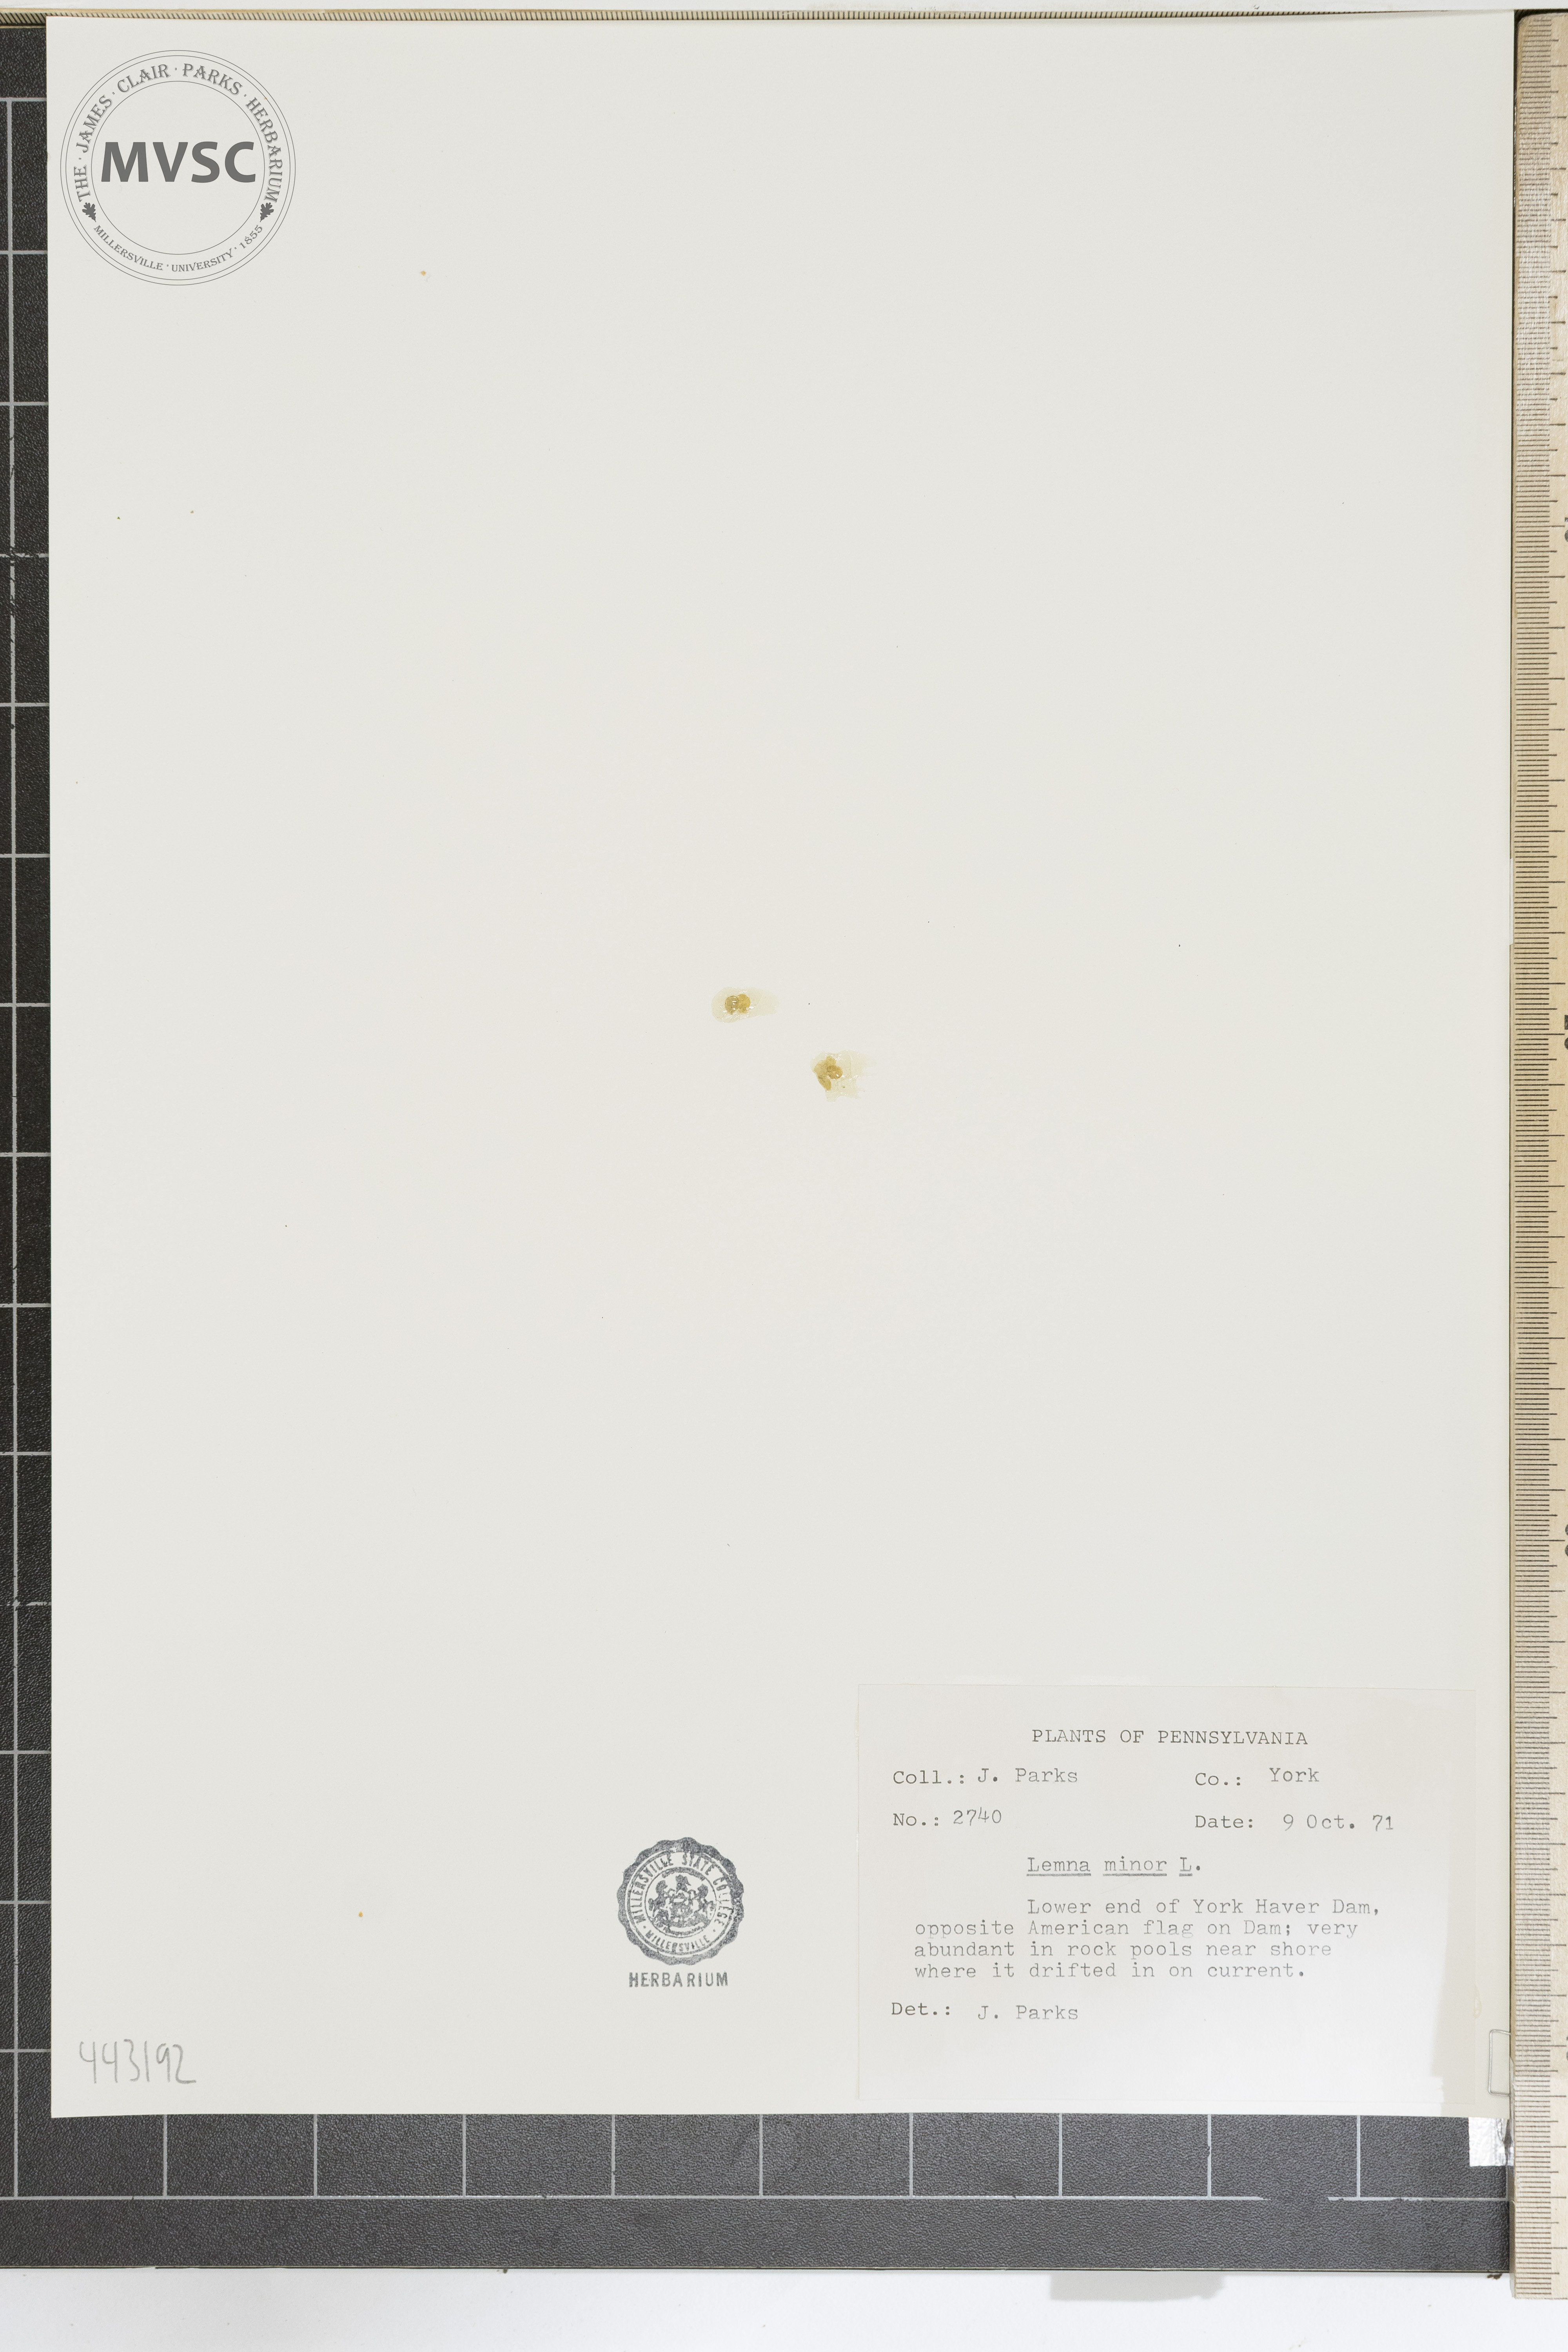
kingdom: Plantae
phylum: Tracheophyta
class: Liliopsida
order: Alismatales
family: Araceae
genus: Lemna
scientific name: Lemna minor
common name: Common duckweed
